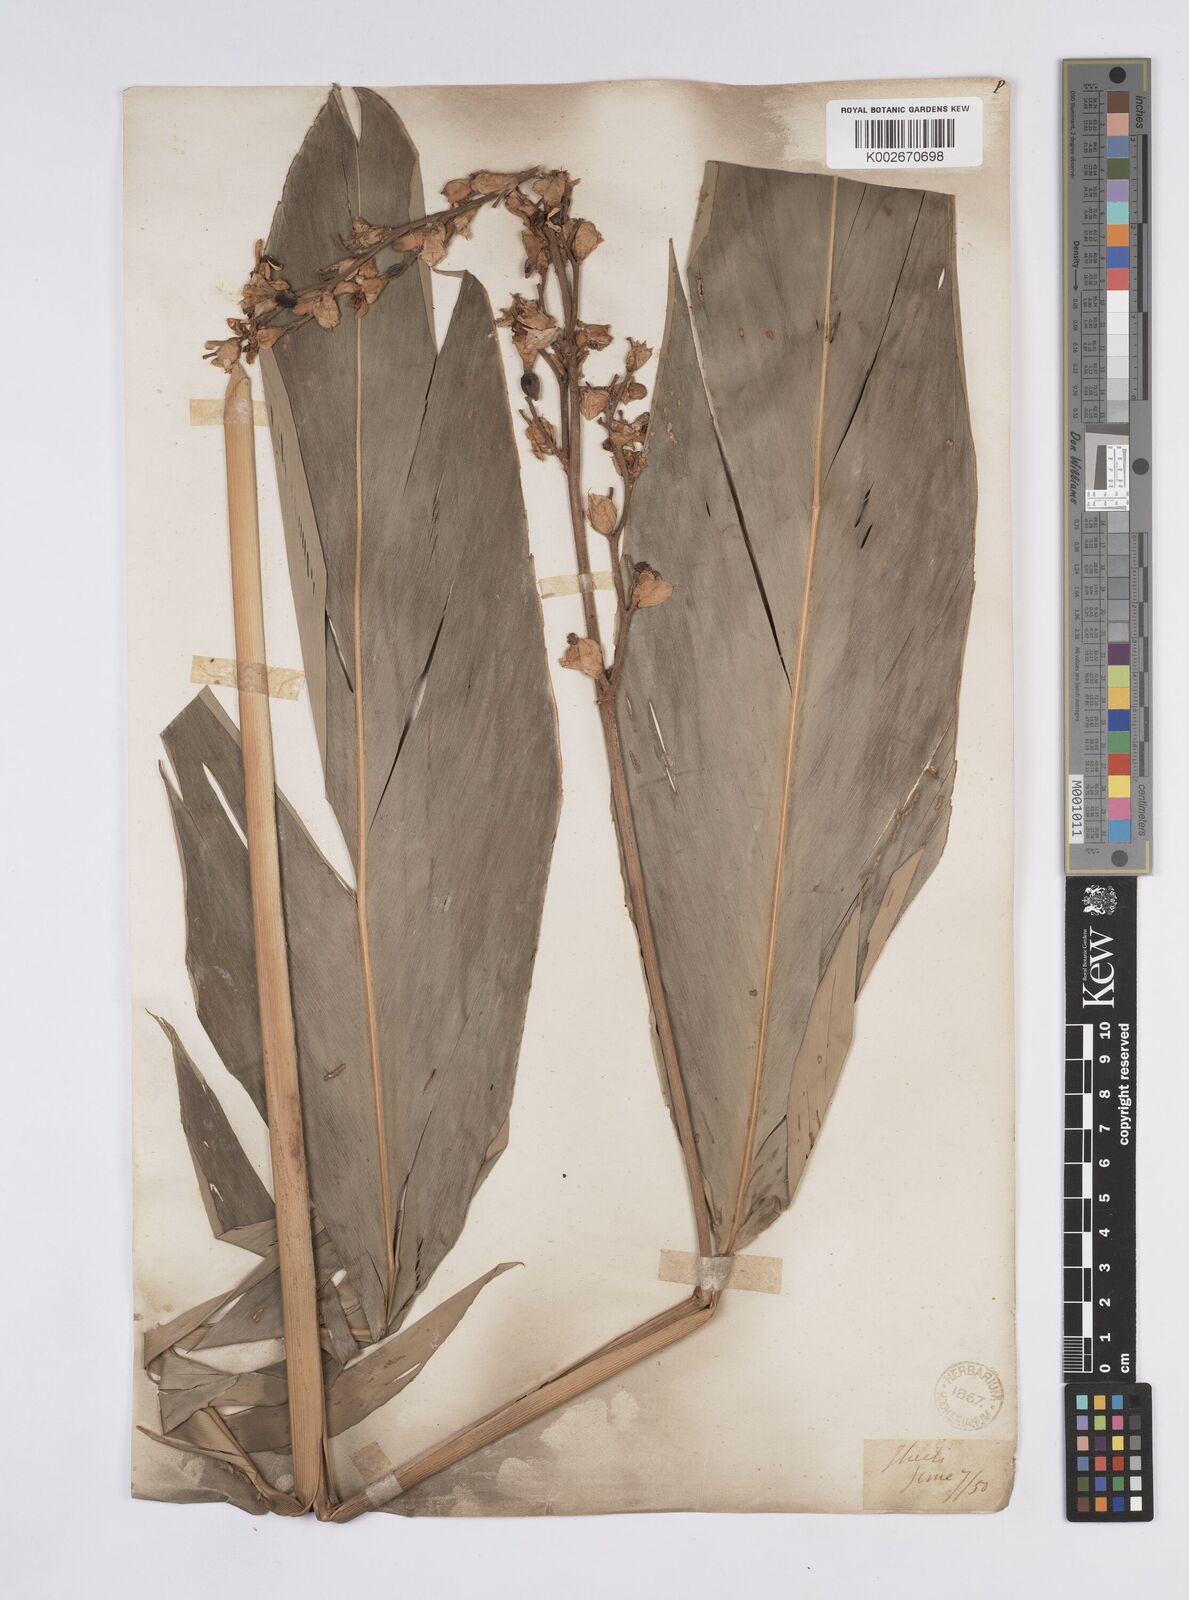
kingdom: Plantae
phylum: Tracheophyta
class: Liliopsida
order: Zingiberales
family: Zingiberaceae
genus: Alpinia
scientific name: Alpinia nigra
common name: Black fruited galanga
